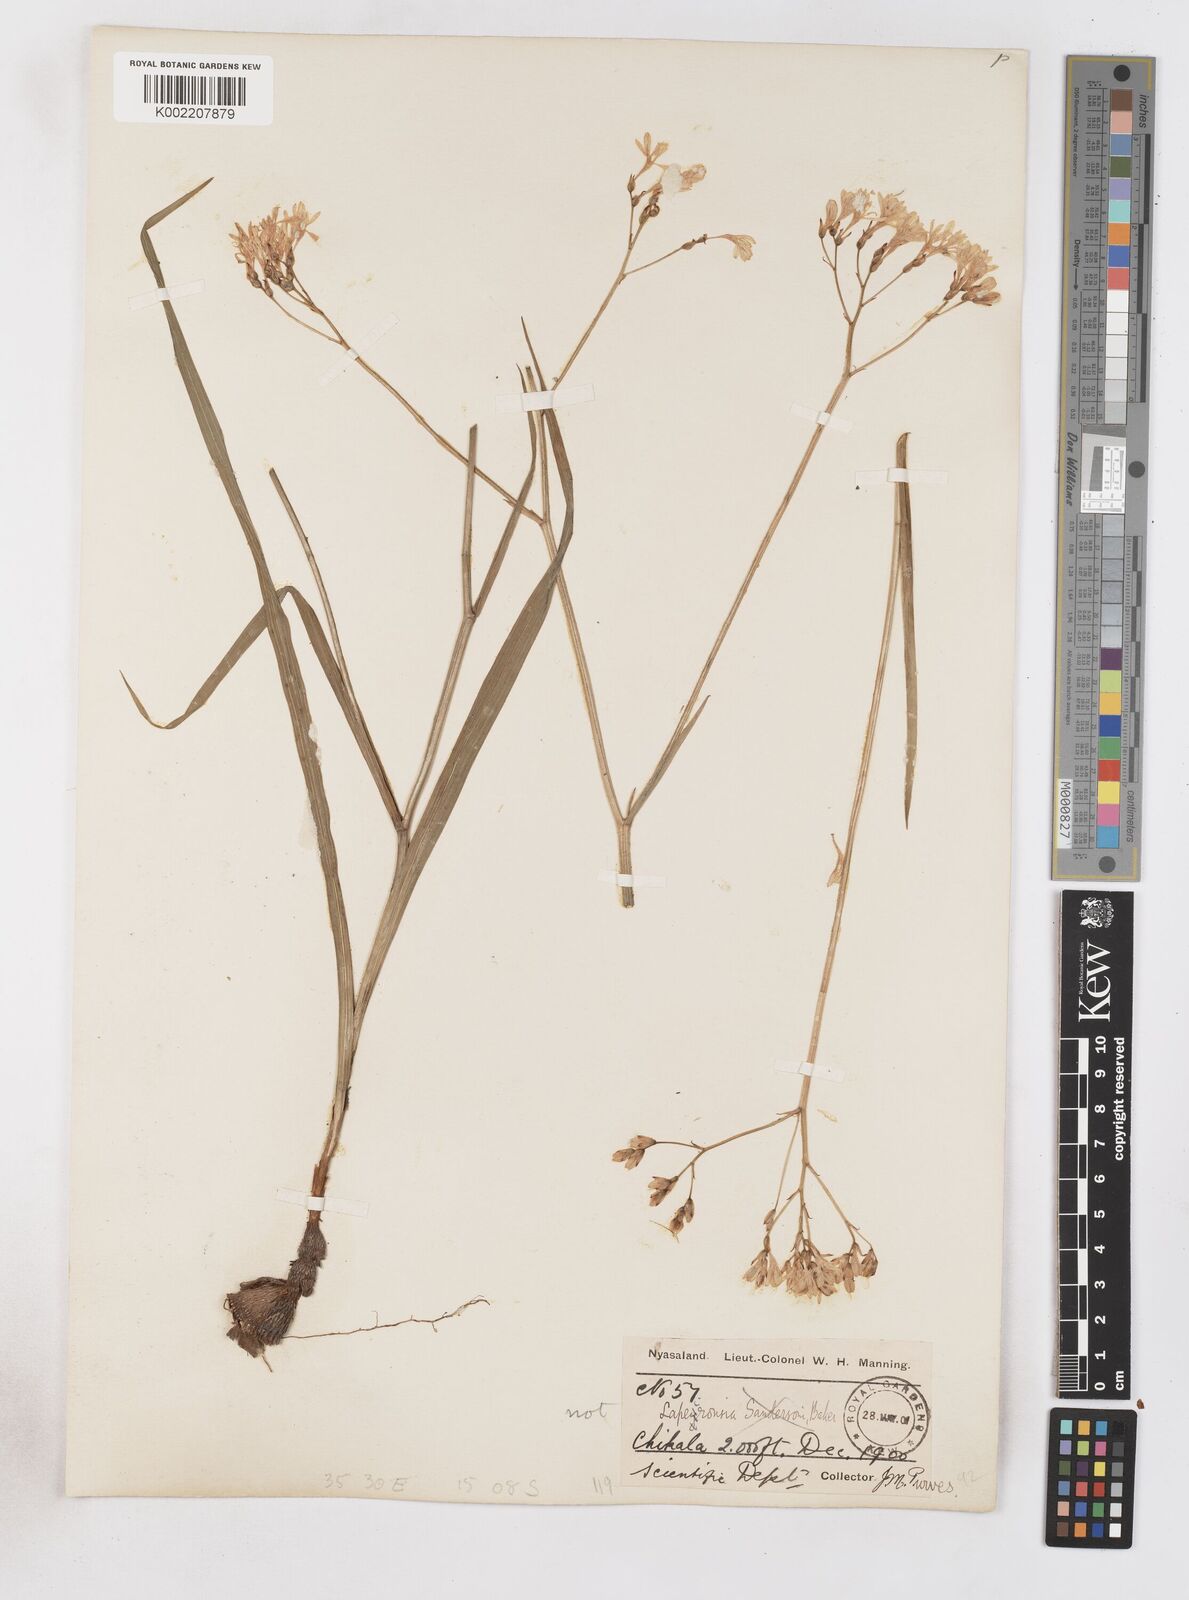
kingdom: Plantae
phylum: Tracheophyta
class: Liliopsida
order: Asparagales
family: Iridaceae
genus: Afrosolen
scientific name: Afrosolen erythranthus
